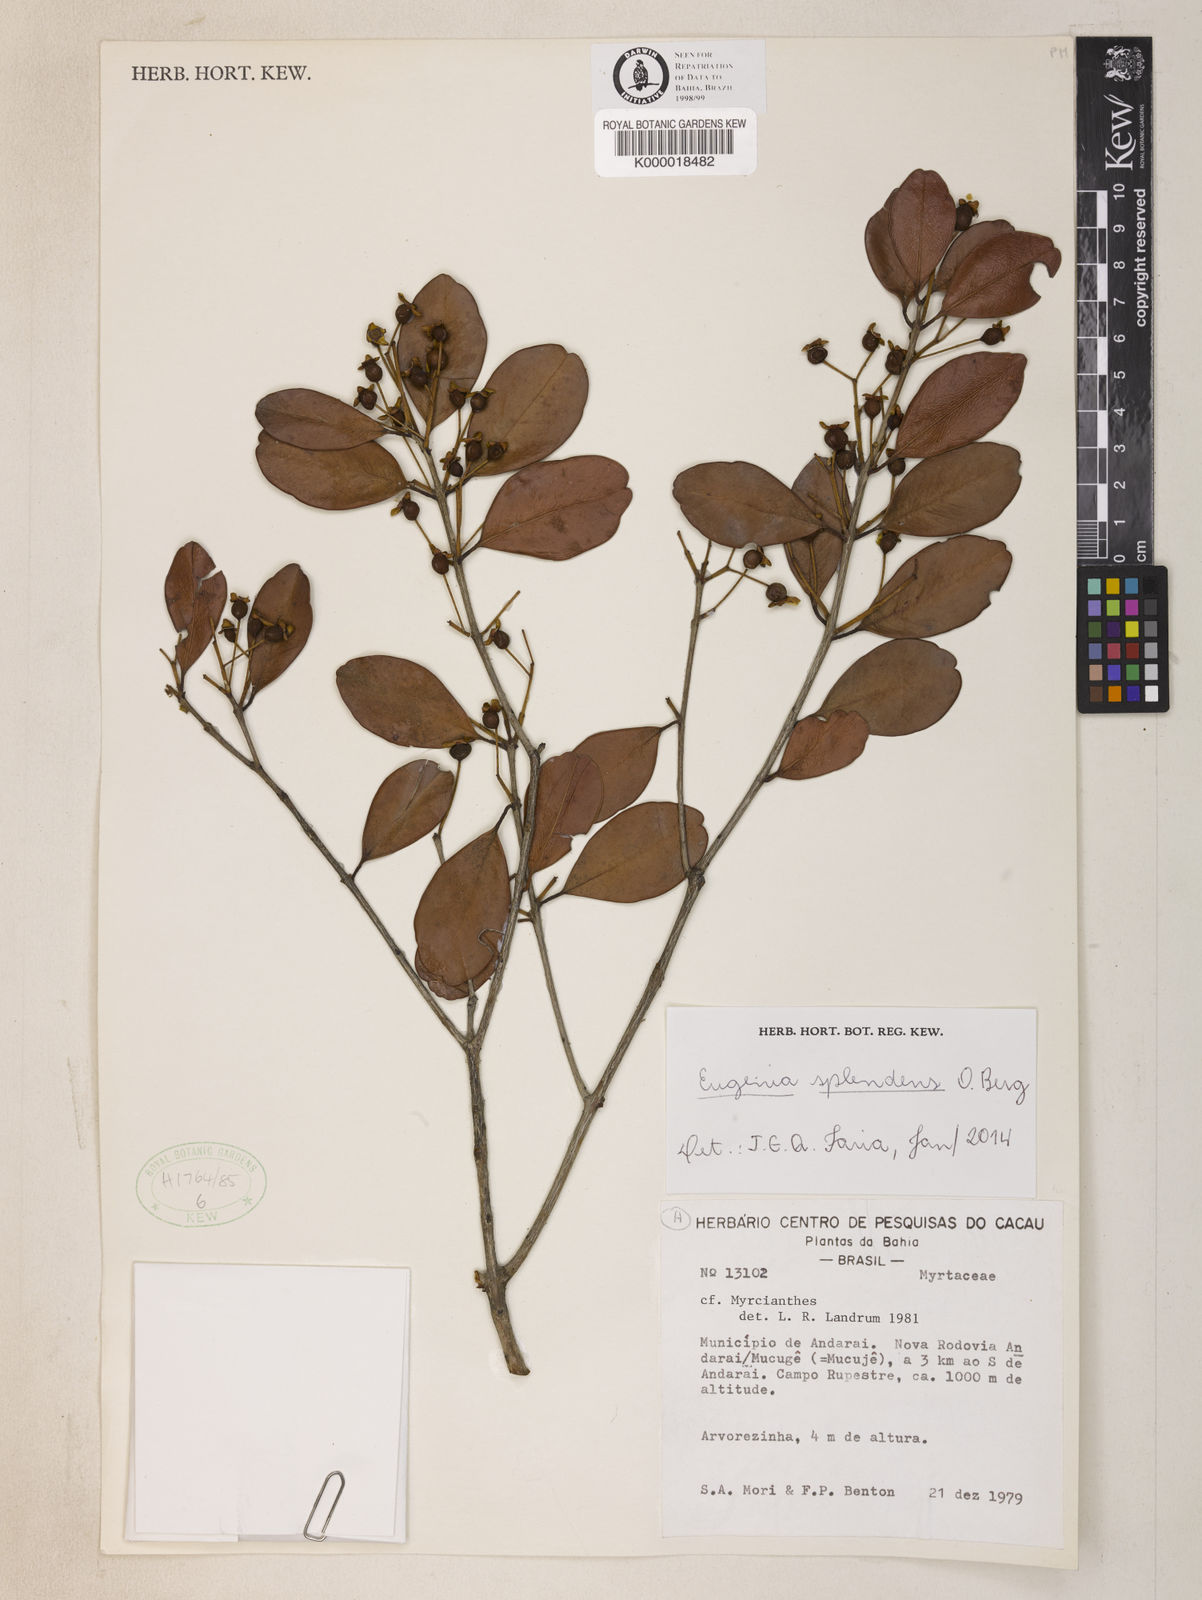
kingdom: Plantae
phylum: Tracheophyta
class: Magnoliopsida
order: Myrtales
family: Myrtaceae
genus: Eugenia
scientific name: Eugenia splendens
